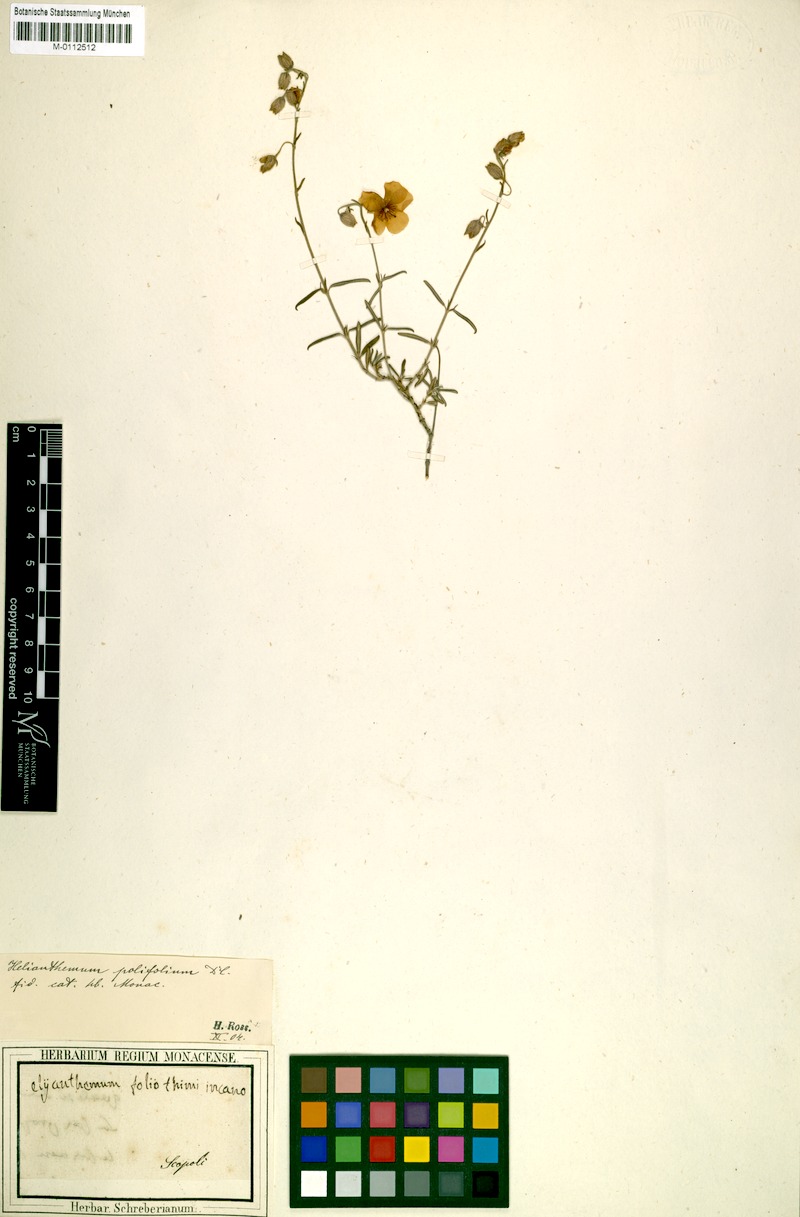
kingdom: Plantae
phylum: Tracheophyta
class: Magnoliopsida
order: Malvales
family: Cistaceae
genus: Helianthemum
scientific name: Helianthemum apenninum
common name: White rock-rose
